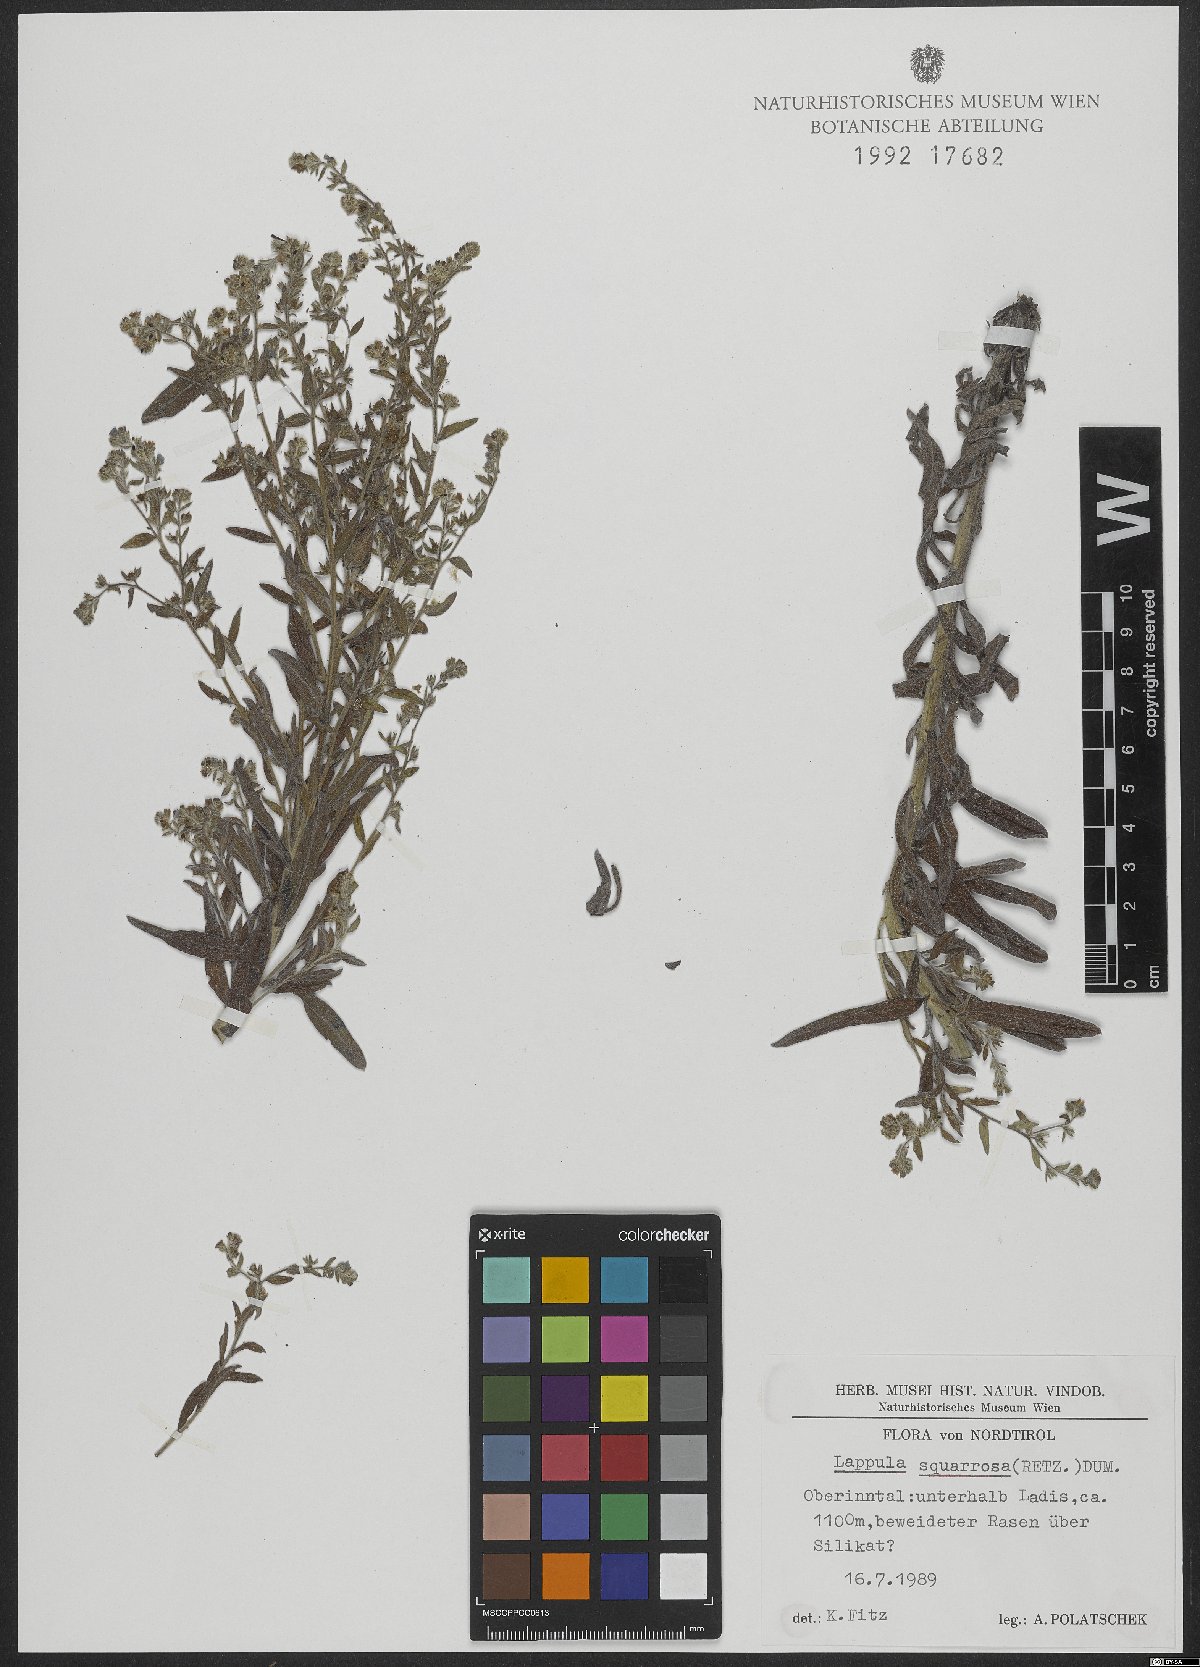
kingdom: Plantae
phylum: Tracheophyta
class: Magnoliopsida
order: Boraginales
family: Boraginaceae
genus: Lappula
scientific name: Lappula squarrosa
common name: European stickseed
